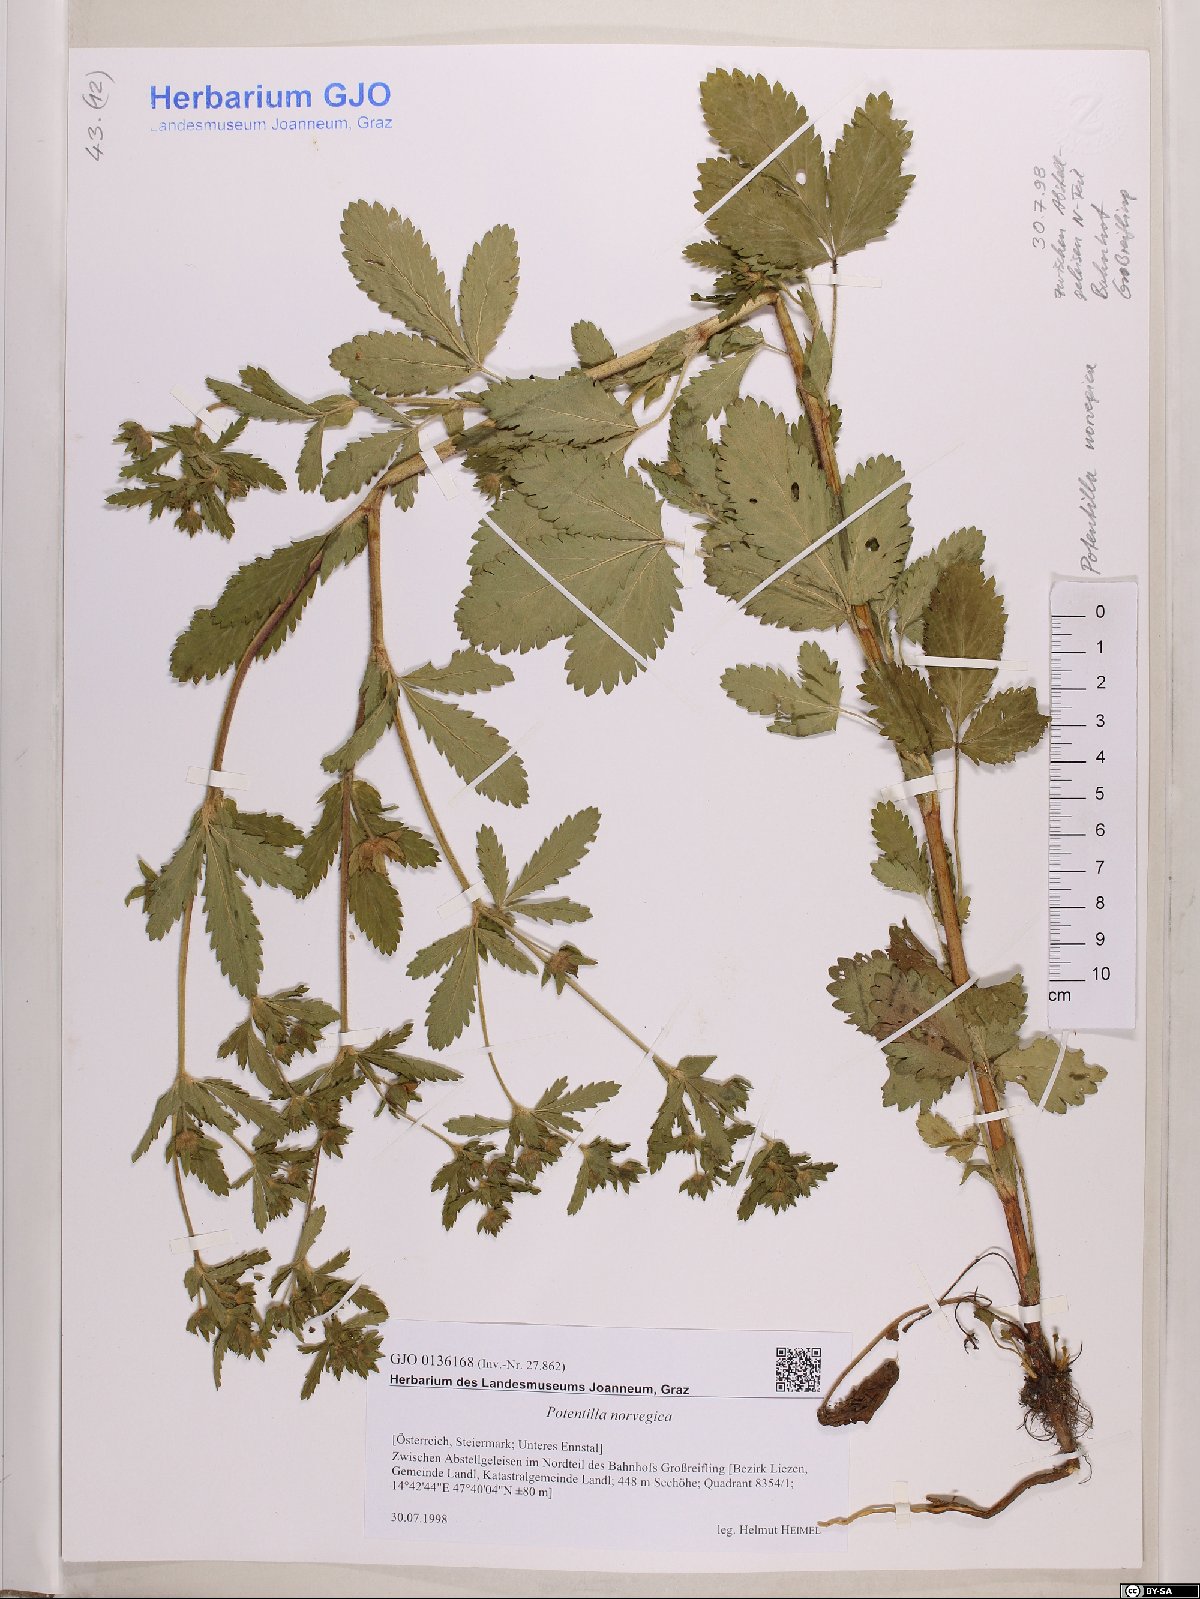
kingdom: Plantae
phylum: Tracheophyta
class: Magnoliopsida
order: Rosales
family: Rosaceae
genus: Potentilla
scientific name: Potentilla norvegica
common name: Ternate-leaved cinquefoil
